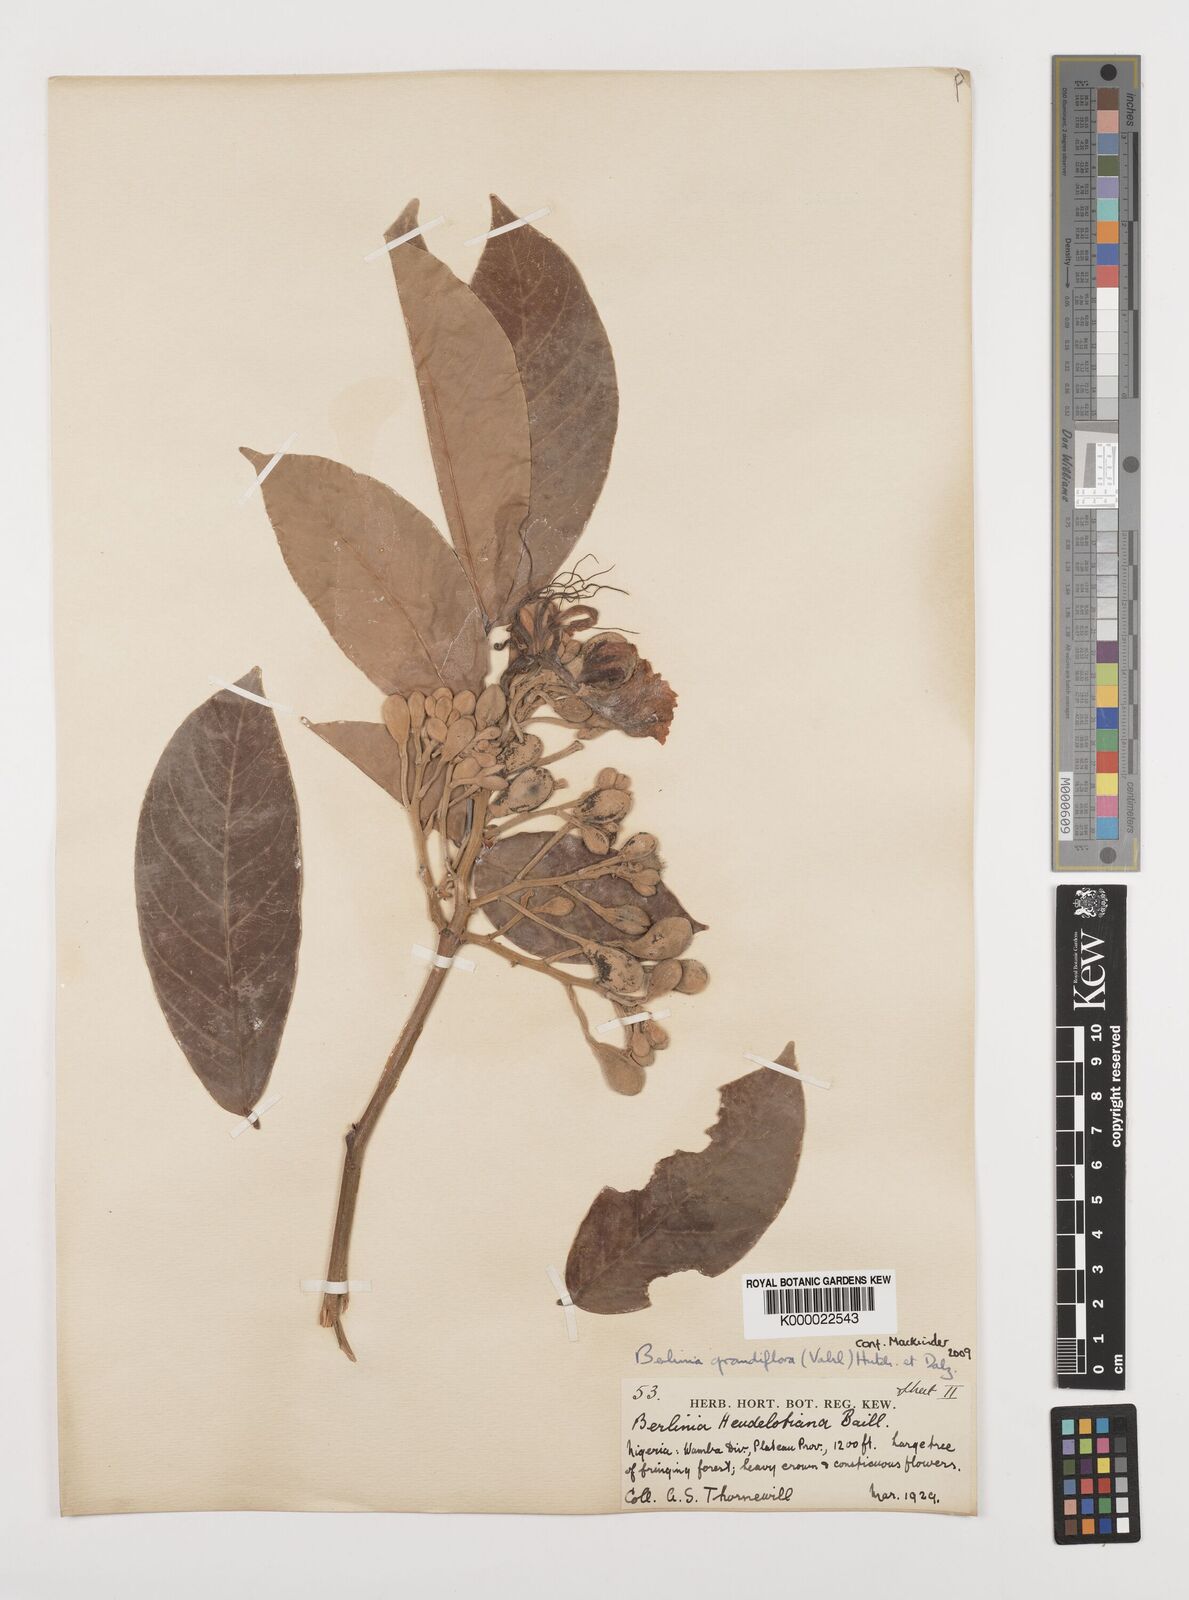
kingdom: Plantae
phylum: Tracheophyta
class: Magnoliopsida
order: Fabales
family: Fabaceae
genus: Berlinia
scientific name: Berlinia grandiflora
